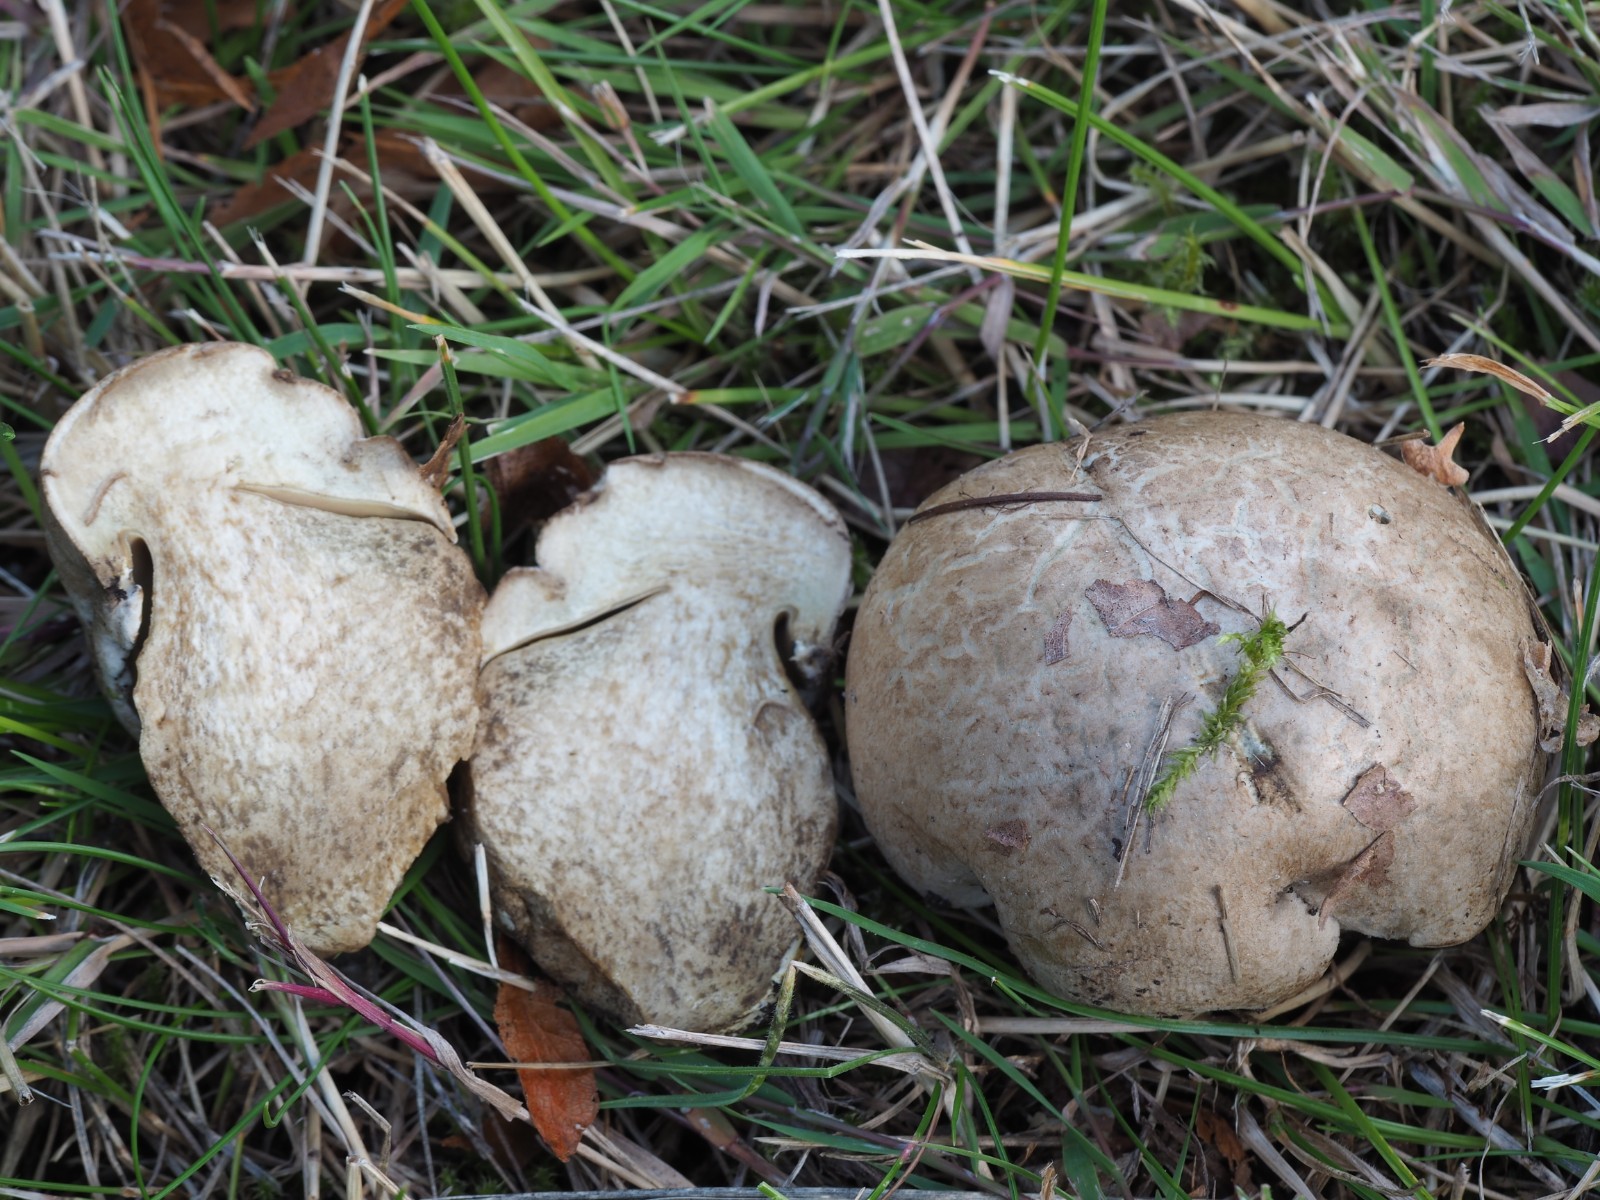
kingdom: Fungi
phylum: Basidiomycota
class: Agaricomycetes
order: Boletales
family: Boletaceae
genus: Caloboletus
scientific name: Caloboletus radicans
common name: rod-rørhat
